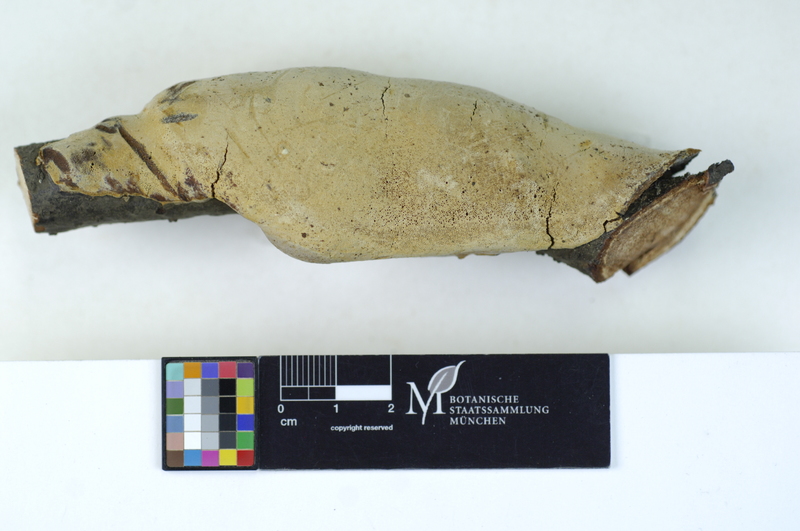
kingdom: Plantae
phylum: Tracheophyta
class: Magnoliopsida
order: Rosales
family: Rosaceae
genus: Prunus
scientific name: Prunus
